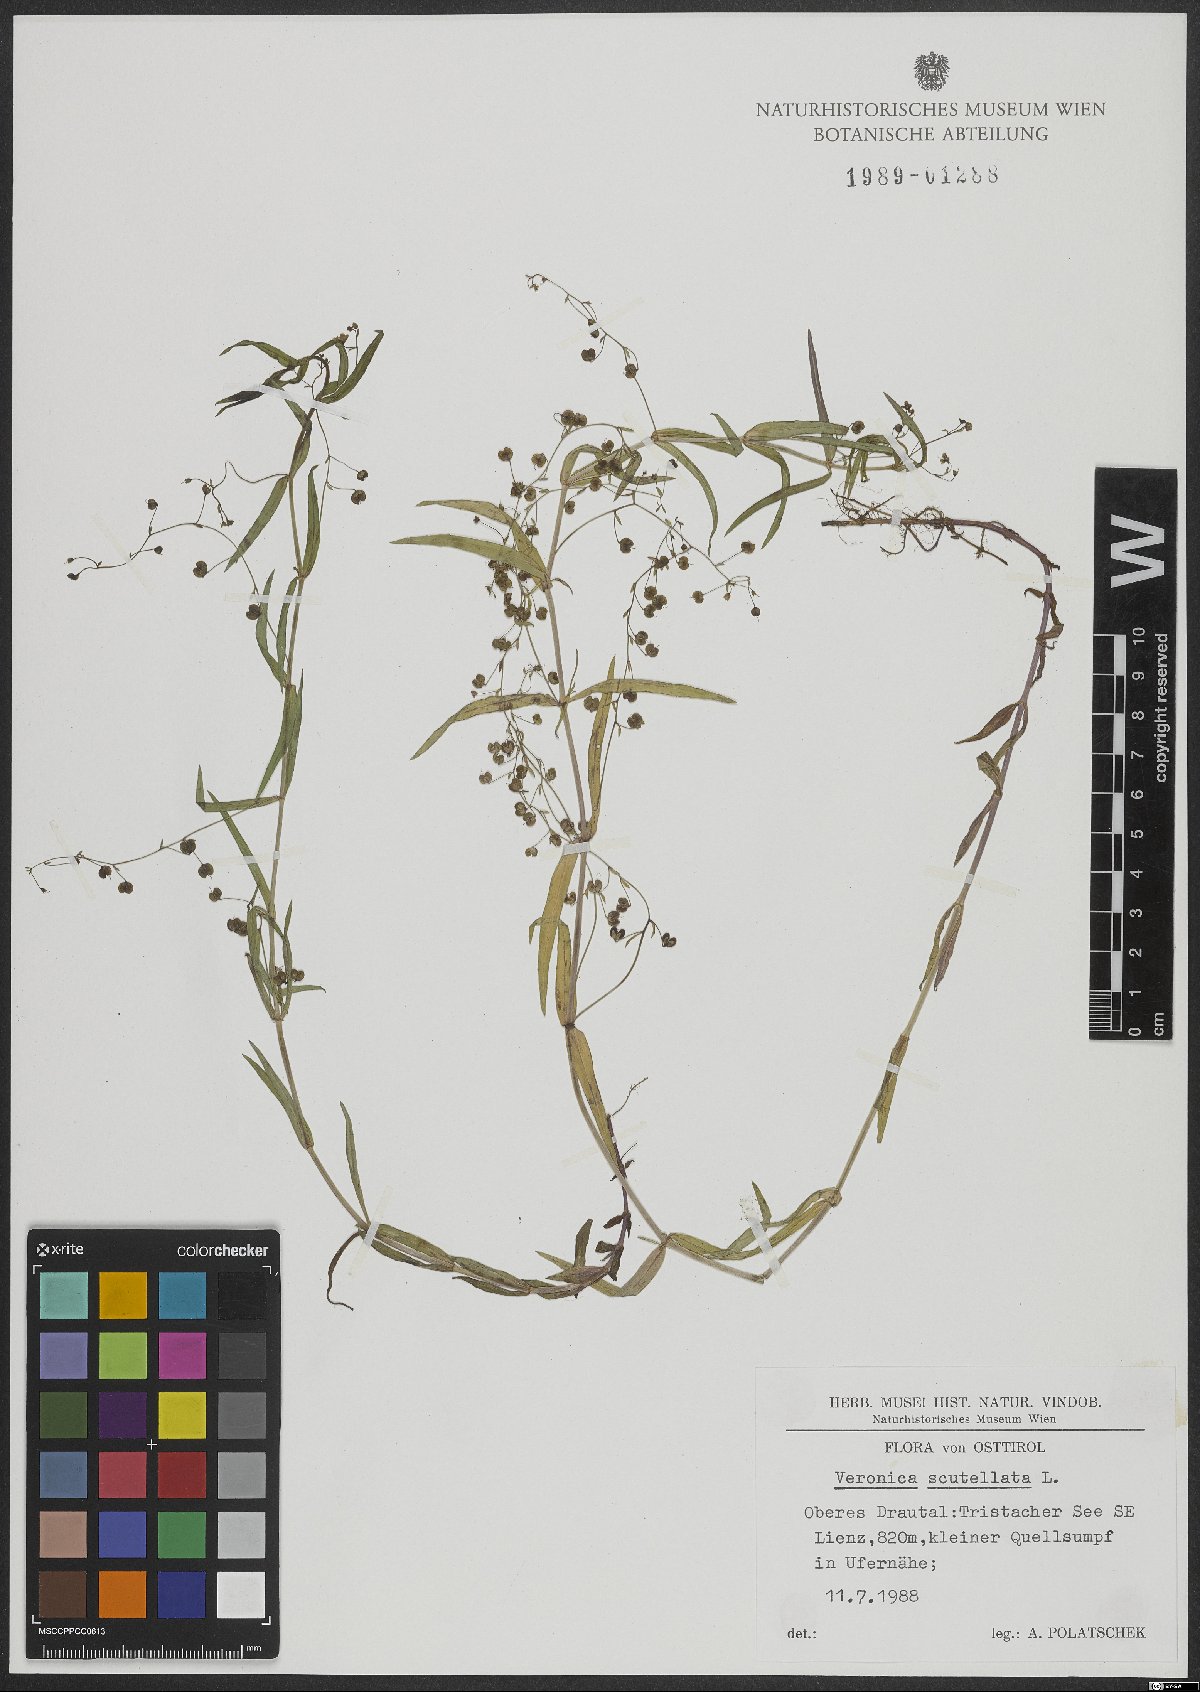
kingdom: Plantae
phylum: Tracheophyta
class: Magnoliopsida
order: Lamiales
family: Plantaginaceae
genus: Veronica
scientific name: Veronica scutellata
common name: Marsh speedwell
